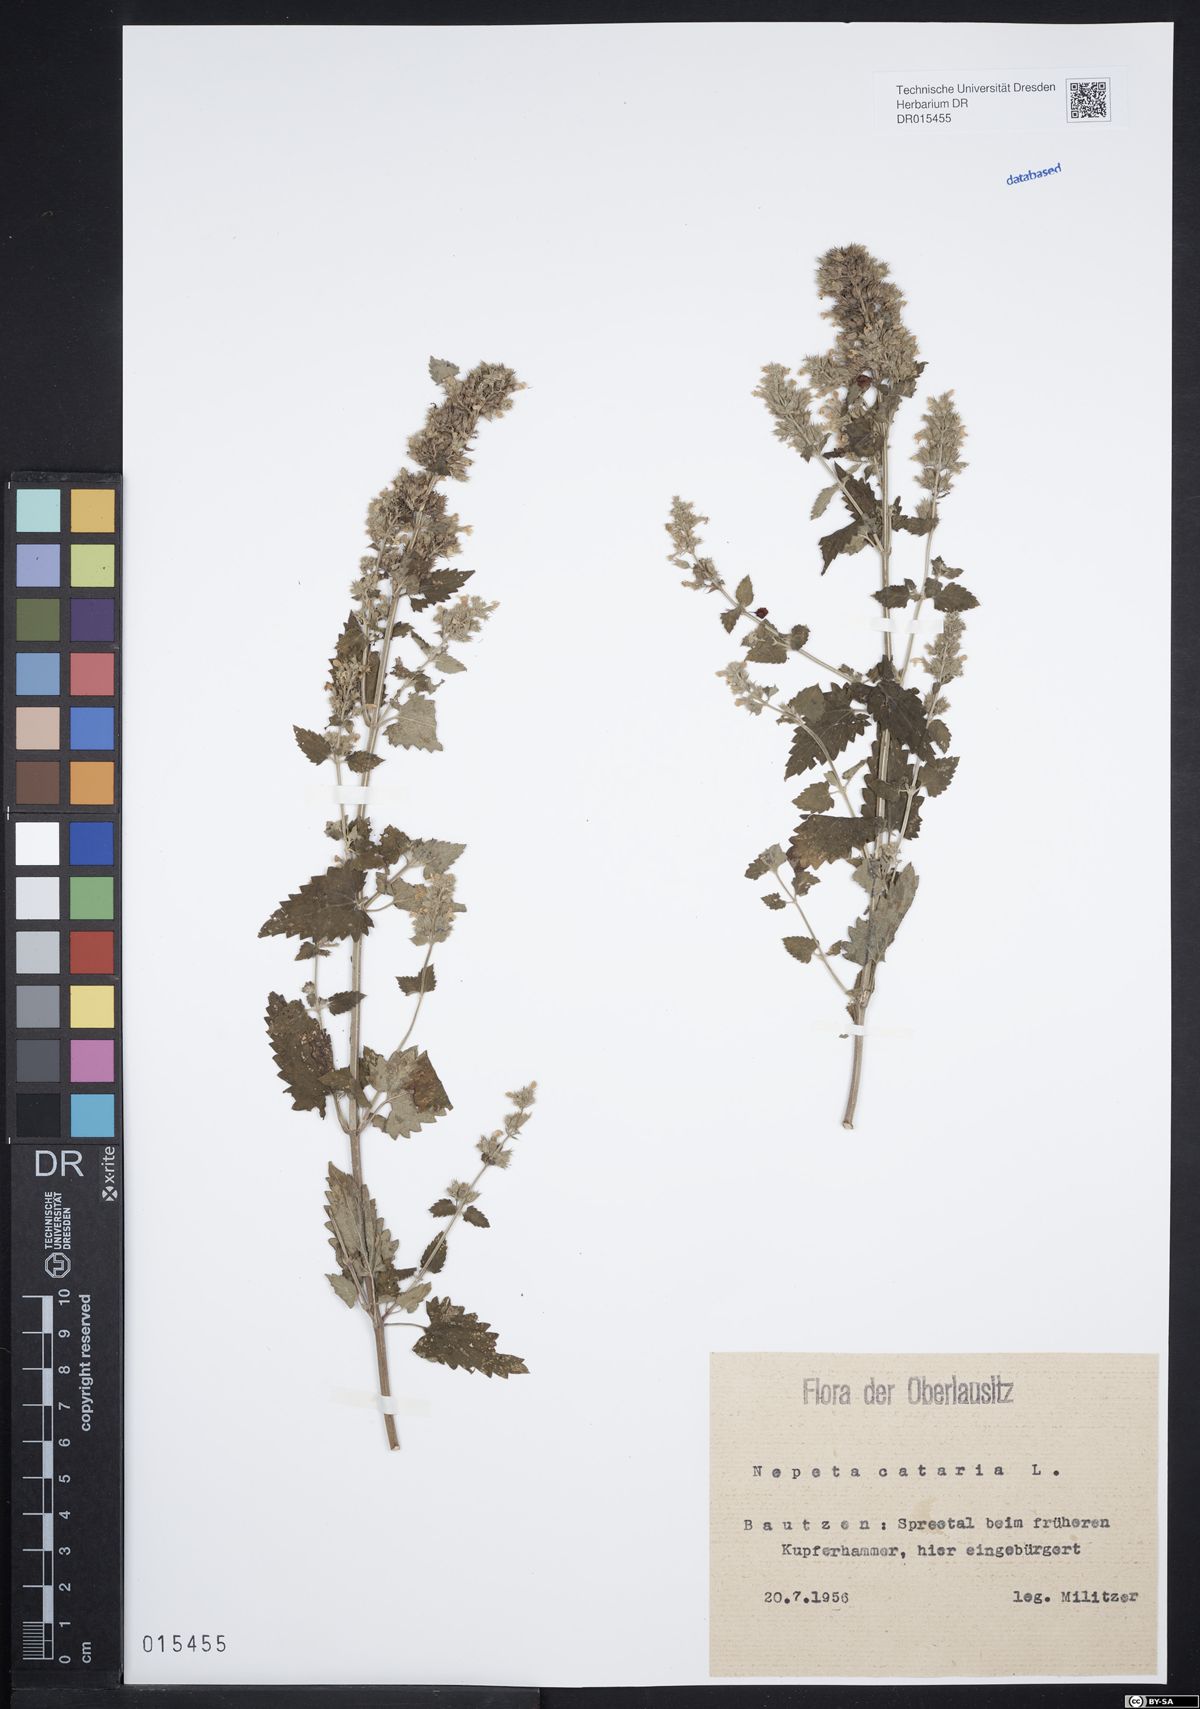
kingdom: Plantae
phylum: Tracheophyta
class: Magnoliopsida
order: Lamiales
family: Lamiaceae
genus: Nepeta
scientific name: Nepeta cataria
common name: Catnip
